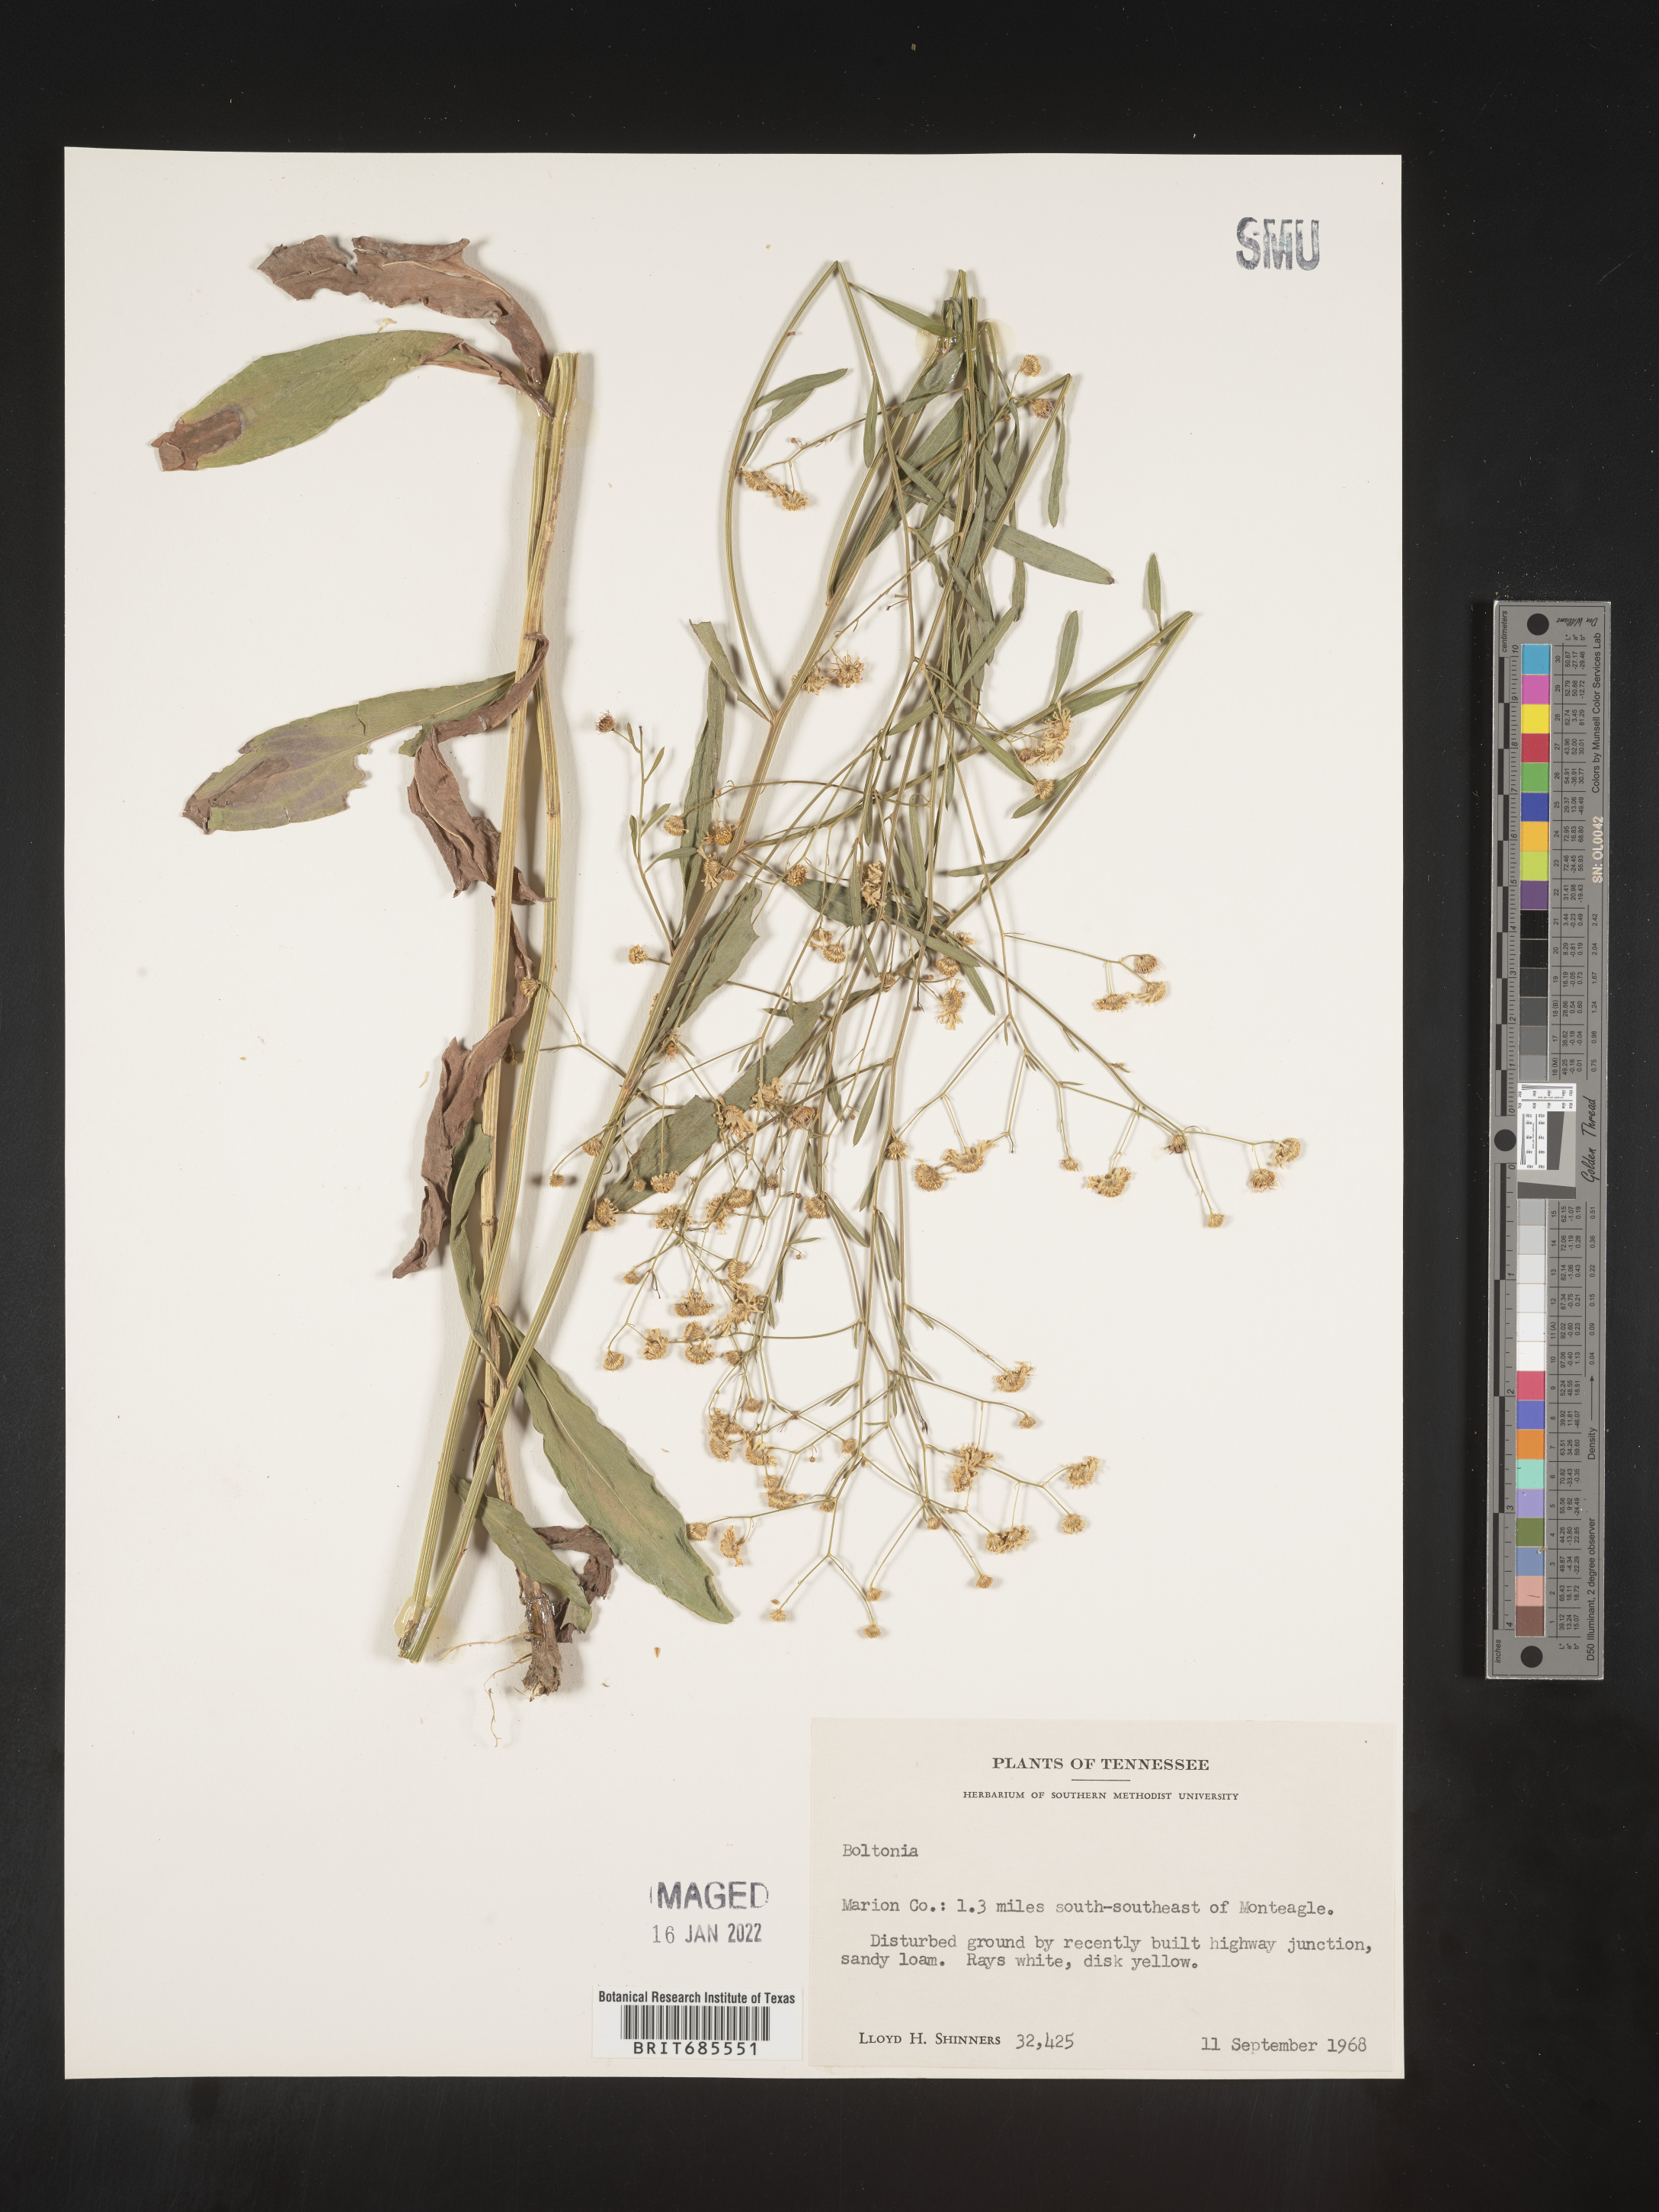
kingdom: Plantae
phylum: Tracheophyta
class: Magnoliopsida
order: Asterales
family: Asteraceae
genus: Boltonia
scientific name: Boltonia
